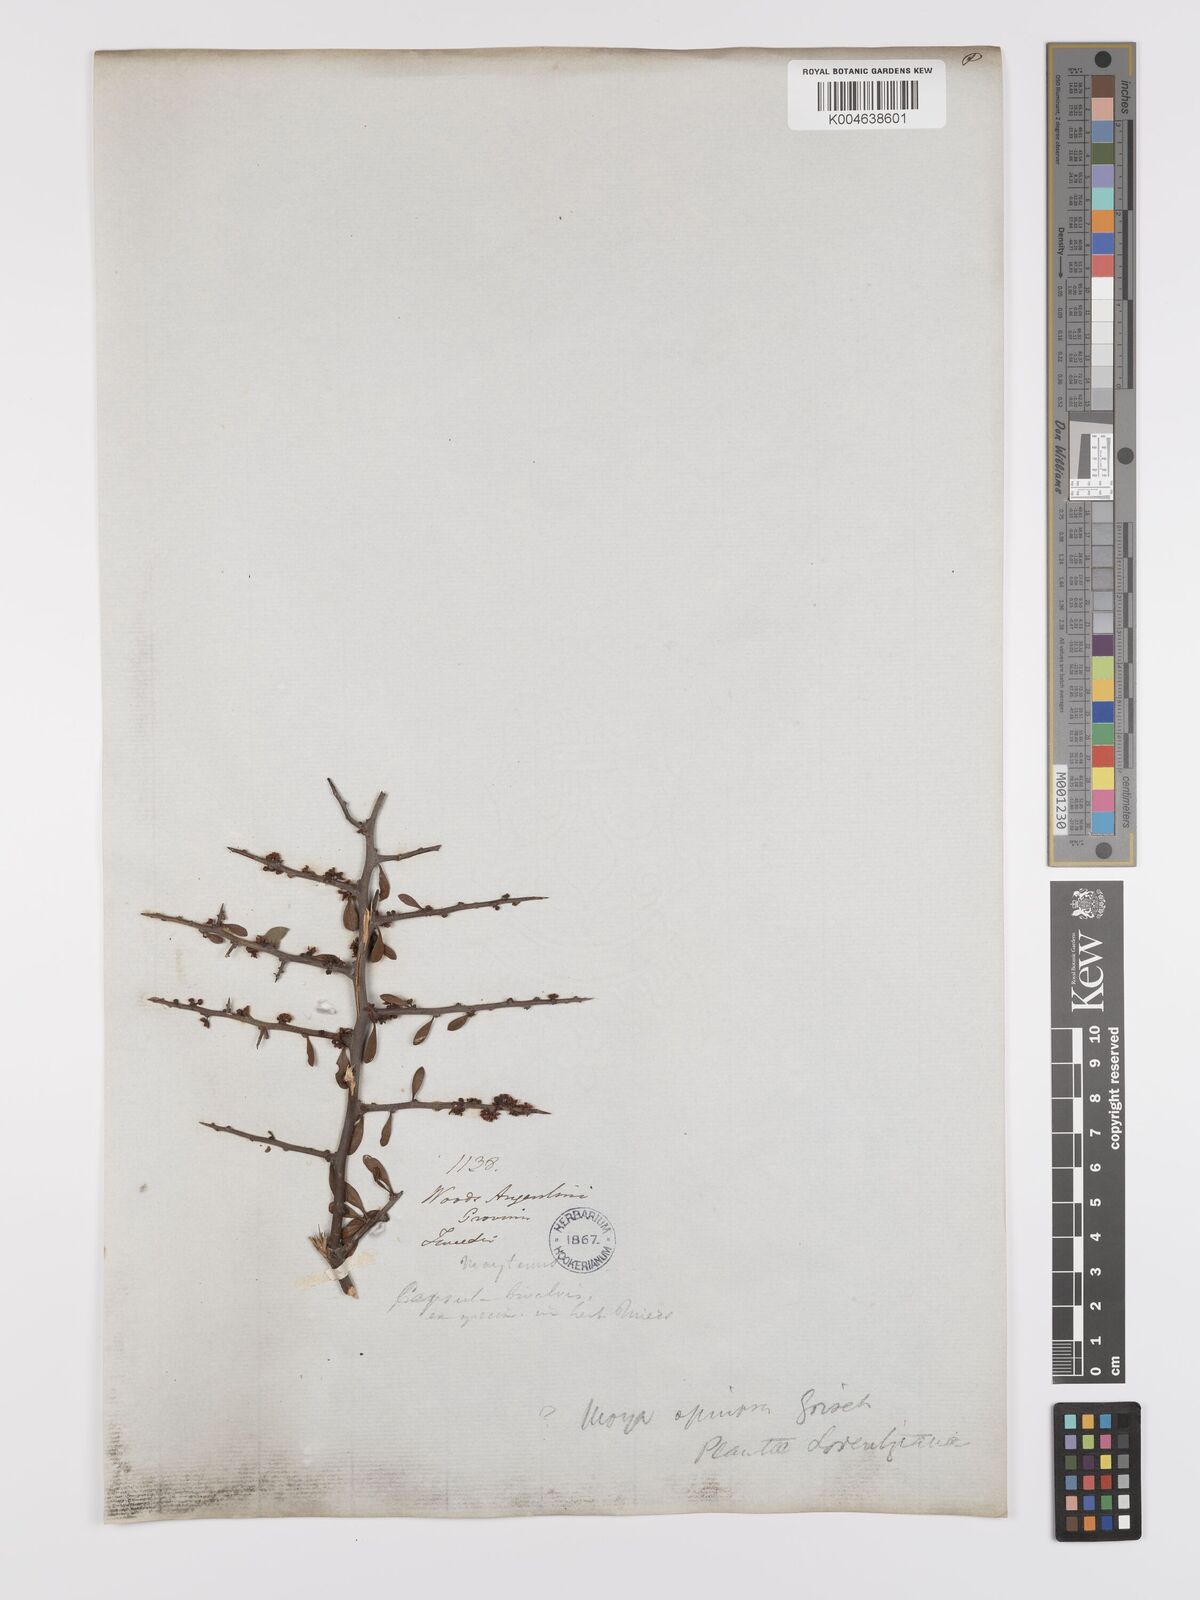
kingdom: Plantae
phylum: Tracheophyta
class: Magnoliopsida
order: Celastrales
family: Celastraceae
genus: Monteverdia
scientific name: Monteverdia spinosa
